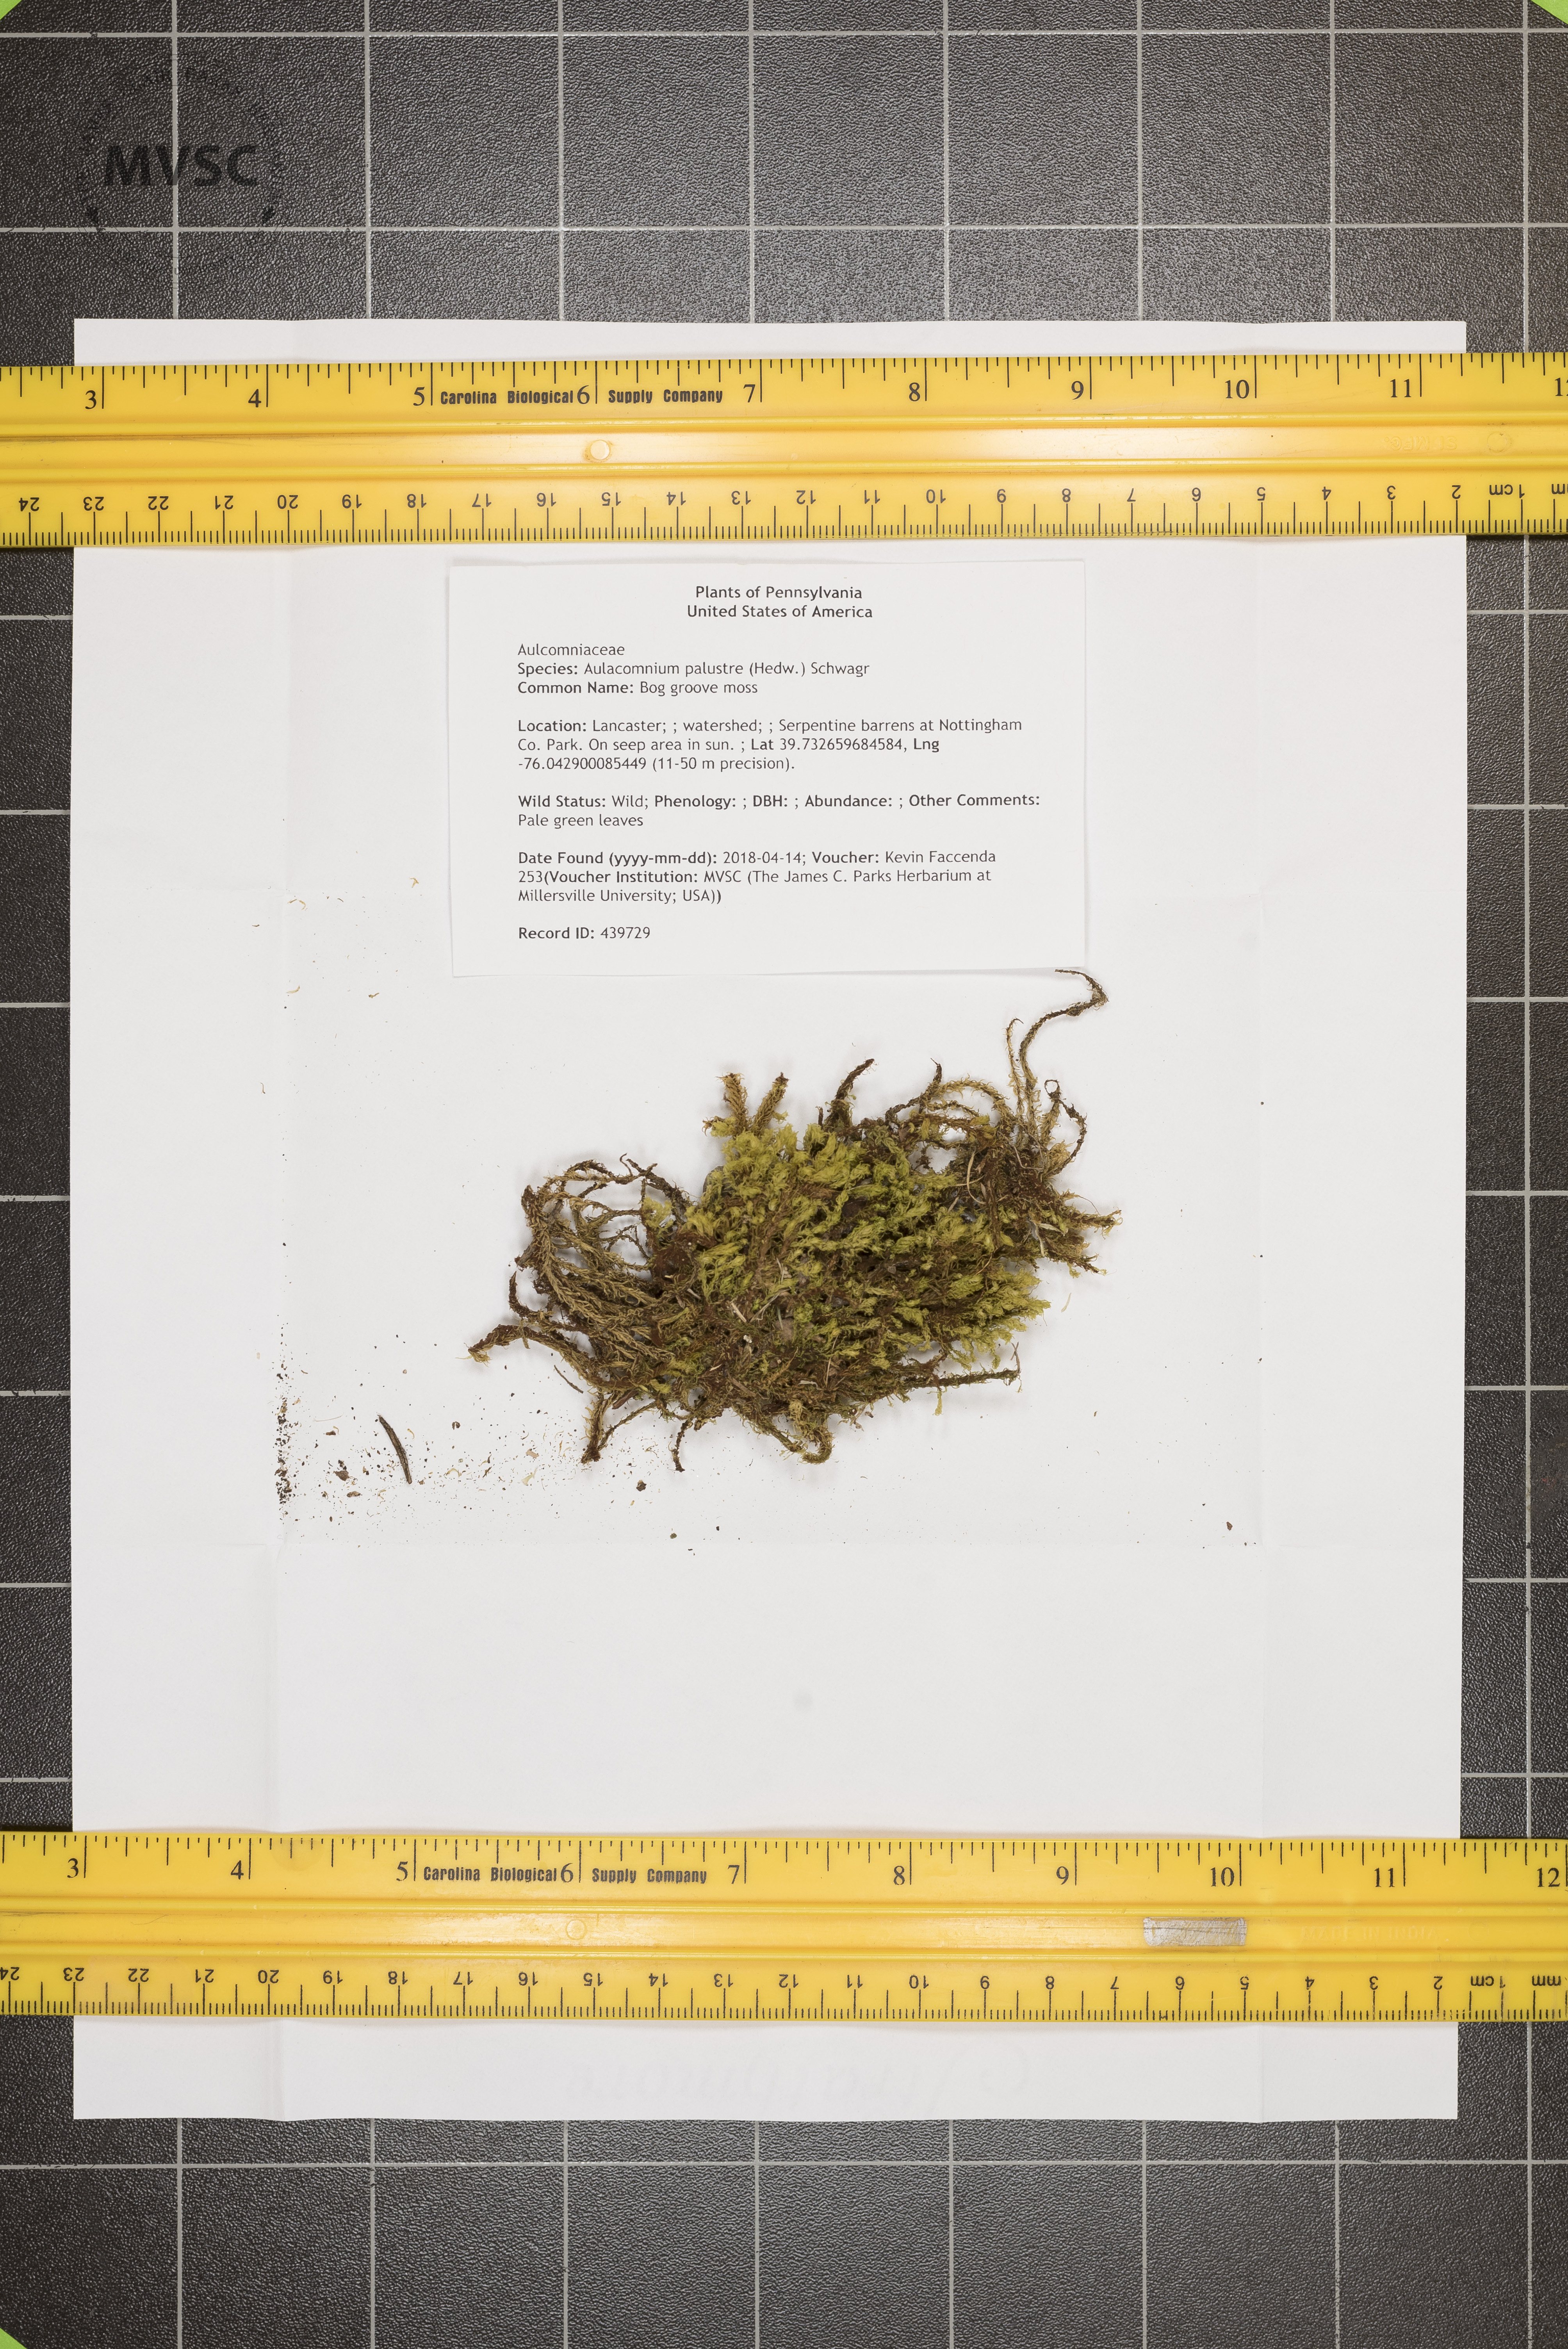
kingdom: Plantae
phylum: Bryophyta
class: Bryopsida
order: Aulacomniales
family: Aulacomniaceae
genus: Aulacomnium
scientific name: Aulacomnium palustre
